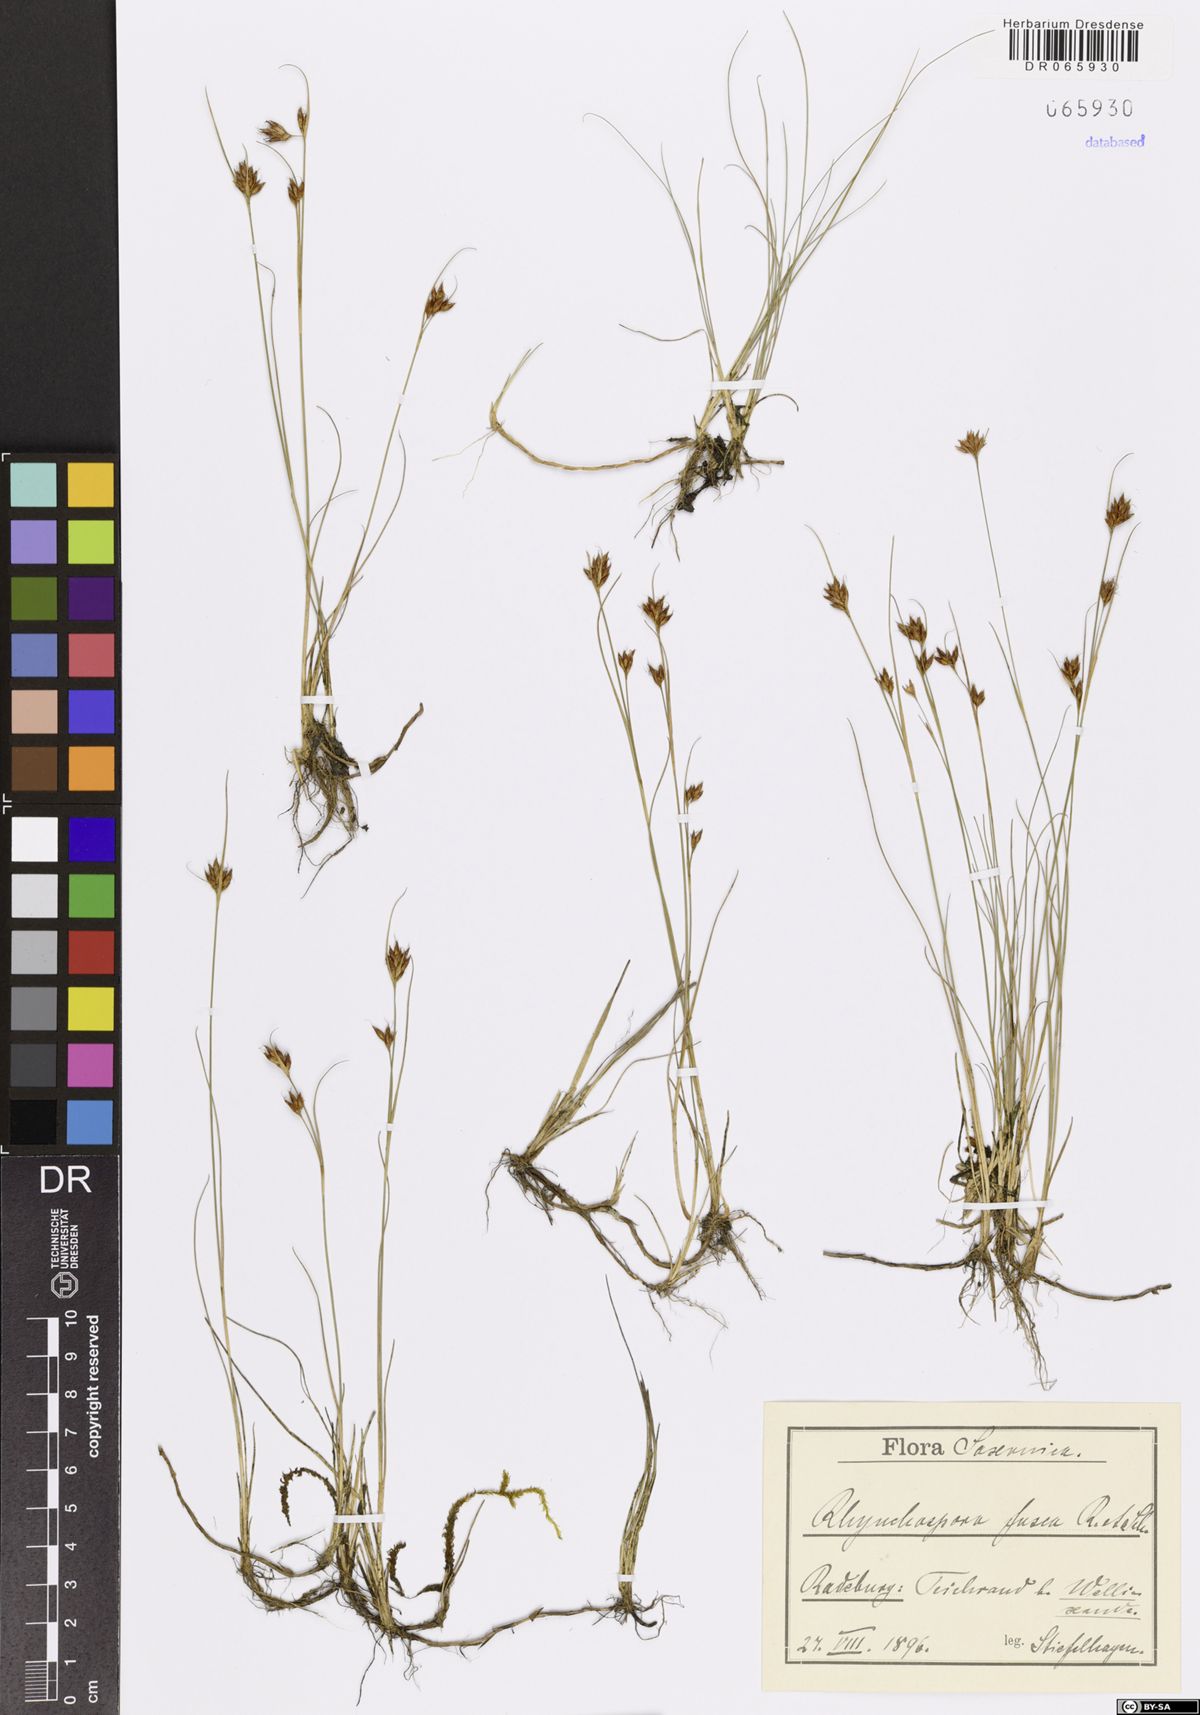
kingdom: Plantae
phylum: Tracheophyta
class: Liliopsida
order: Poales
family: Cyperaceae
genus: Rhynchospora
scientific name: Rhynchospora fusca
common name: Brown beak-sedge
